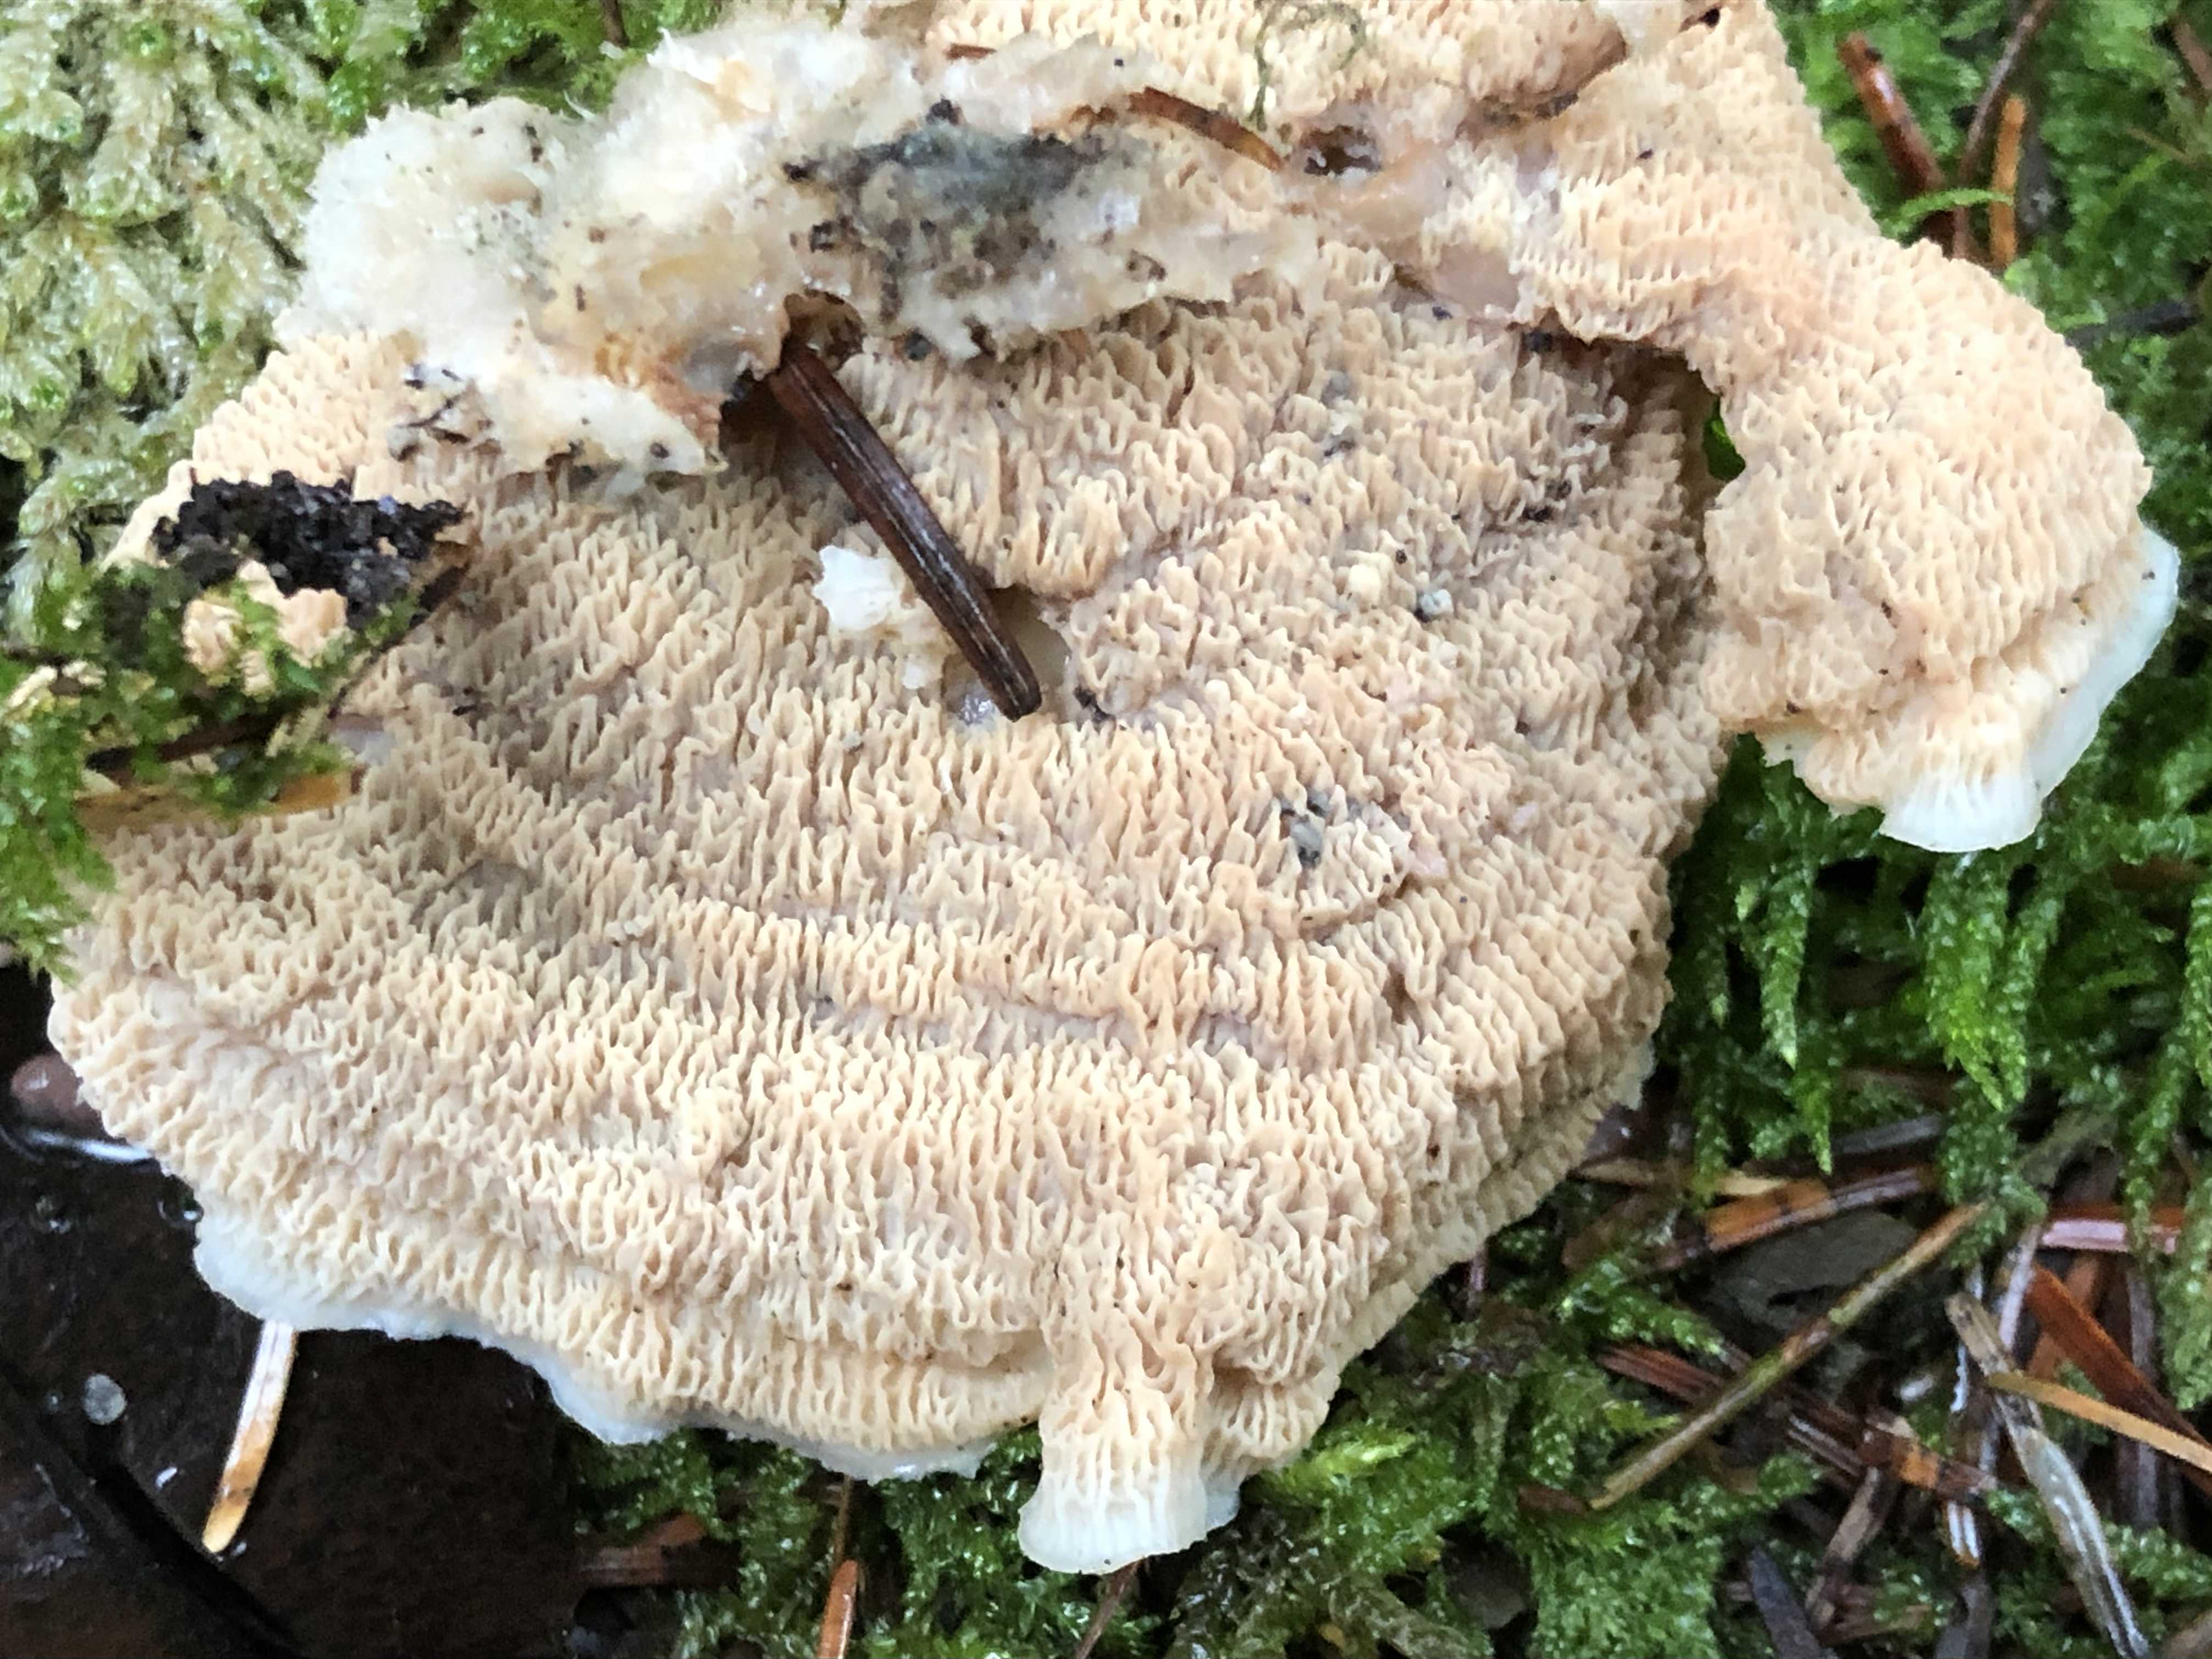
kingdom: Fungi
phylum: Basidiomycota
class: Agaricomycetes
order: Polyporales
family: Meruliaceae
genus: Phlebia
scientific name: Phlebia tremellosa
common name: bævrende åresvamp
